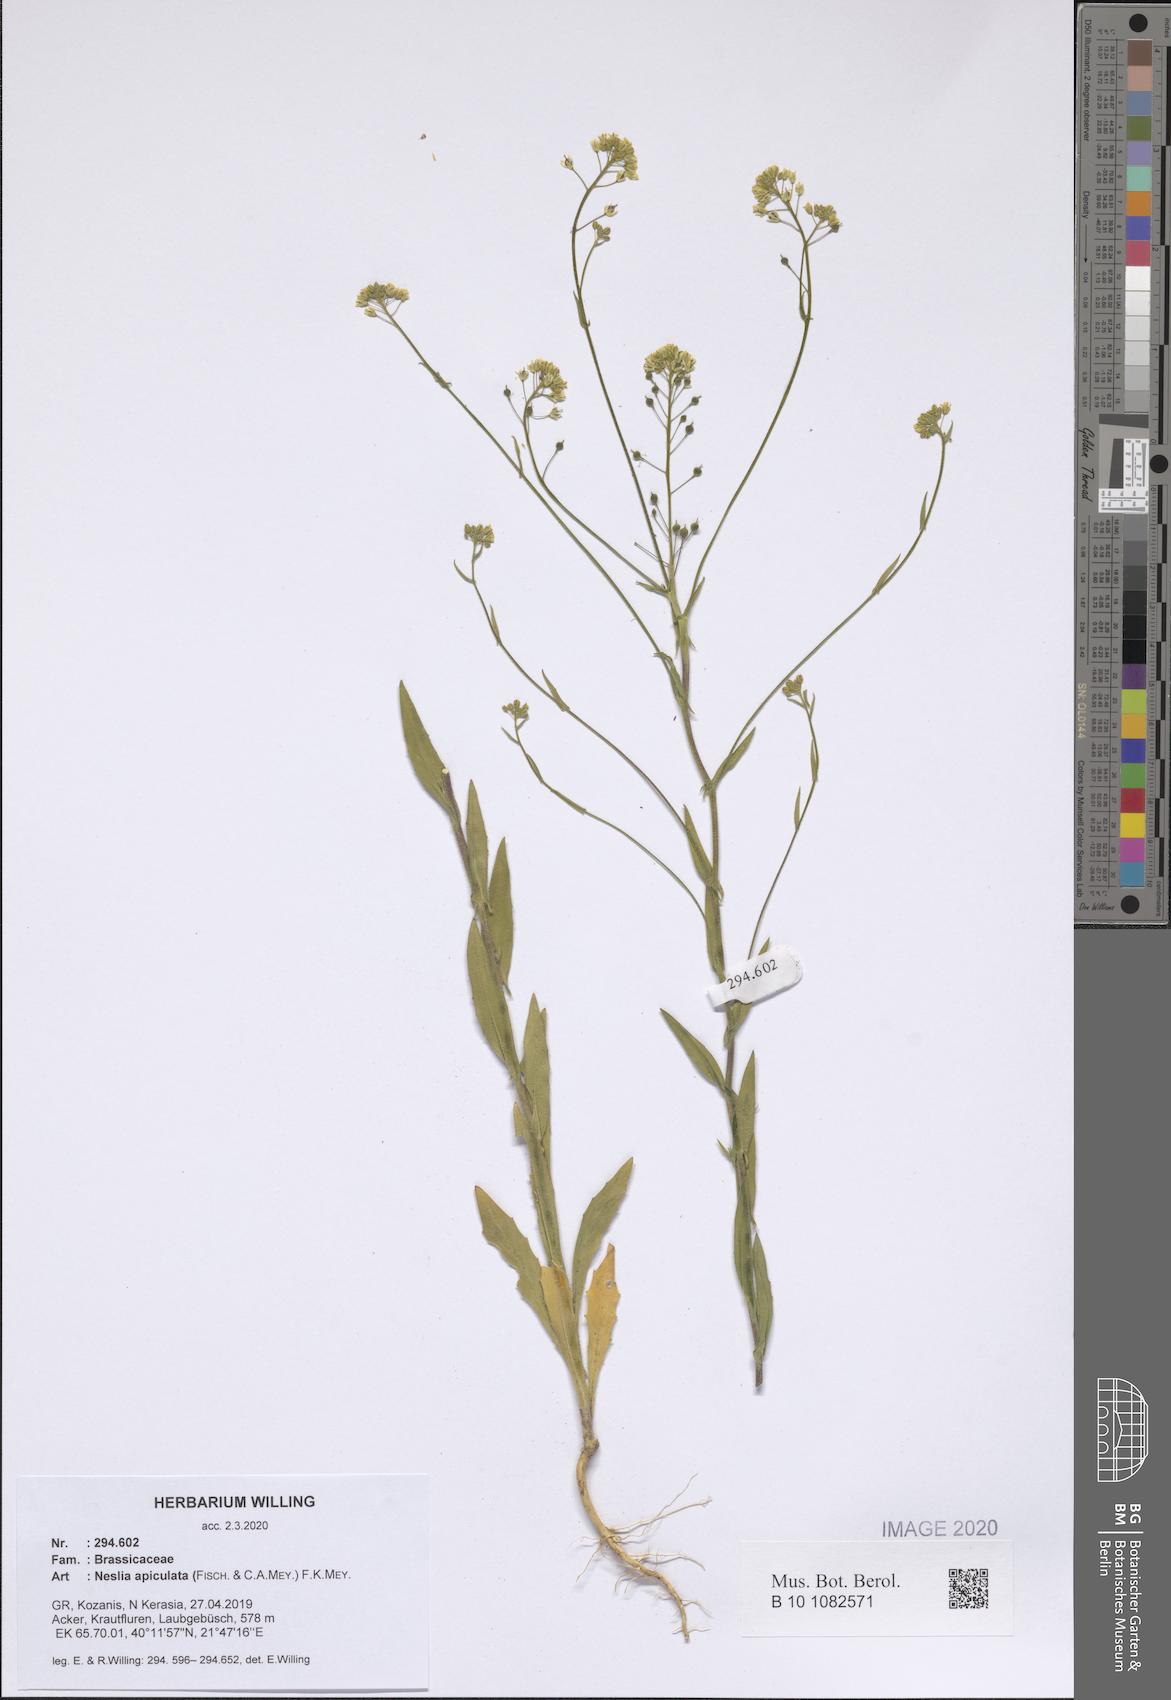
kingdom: Plantae
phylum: Tracheophyta
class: Magnoliopsida
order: Brassicales
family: Brassicaceae
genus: Neslia
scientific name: Neslia paniculata
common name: Ball mustard
